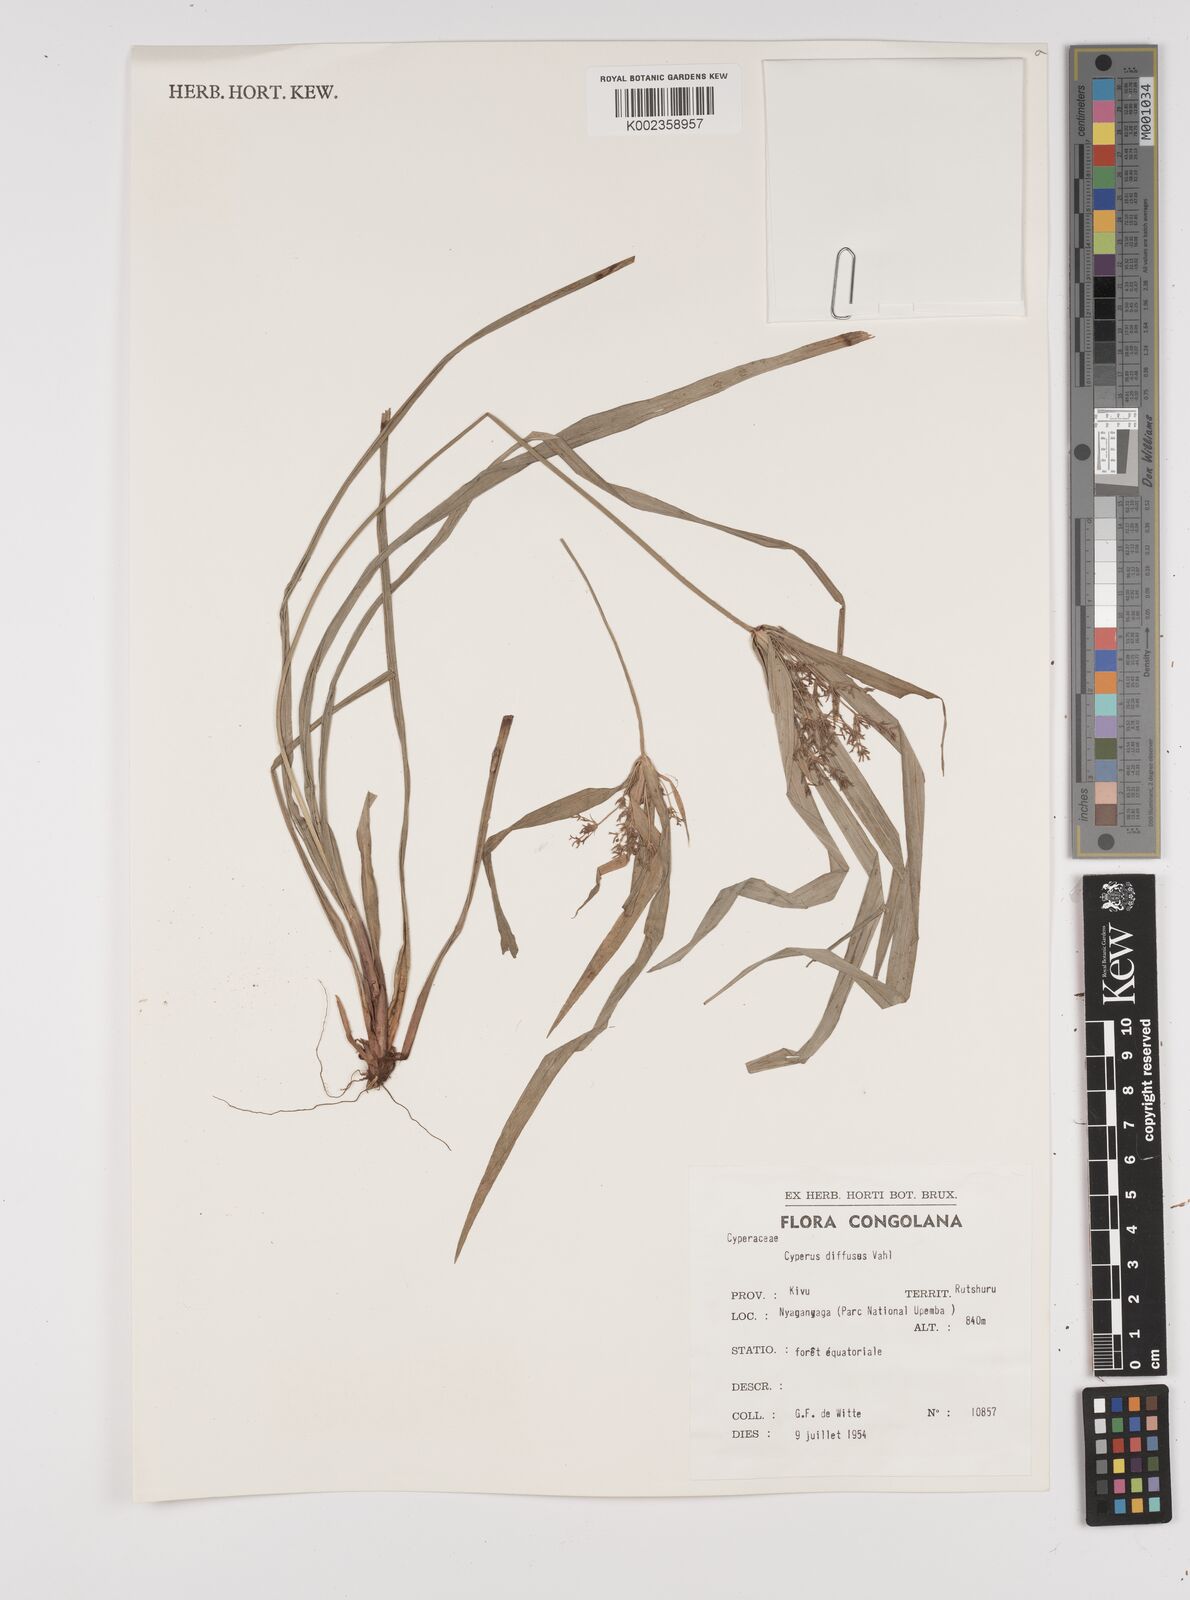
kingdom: Plantae
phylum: Tracheophyta
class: Liliopsida
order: Poales
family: Cyperaceae
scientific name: Cyperaceae
